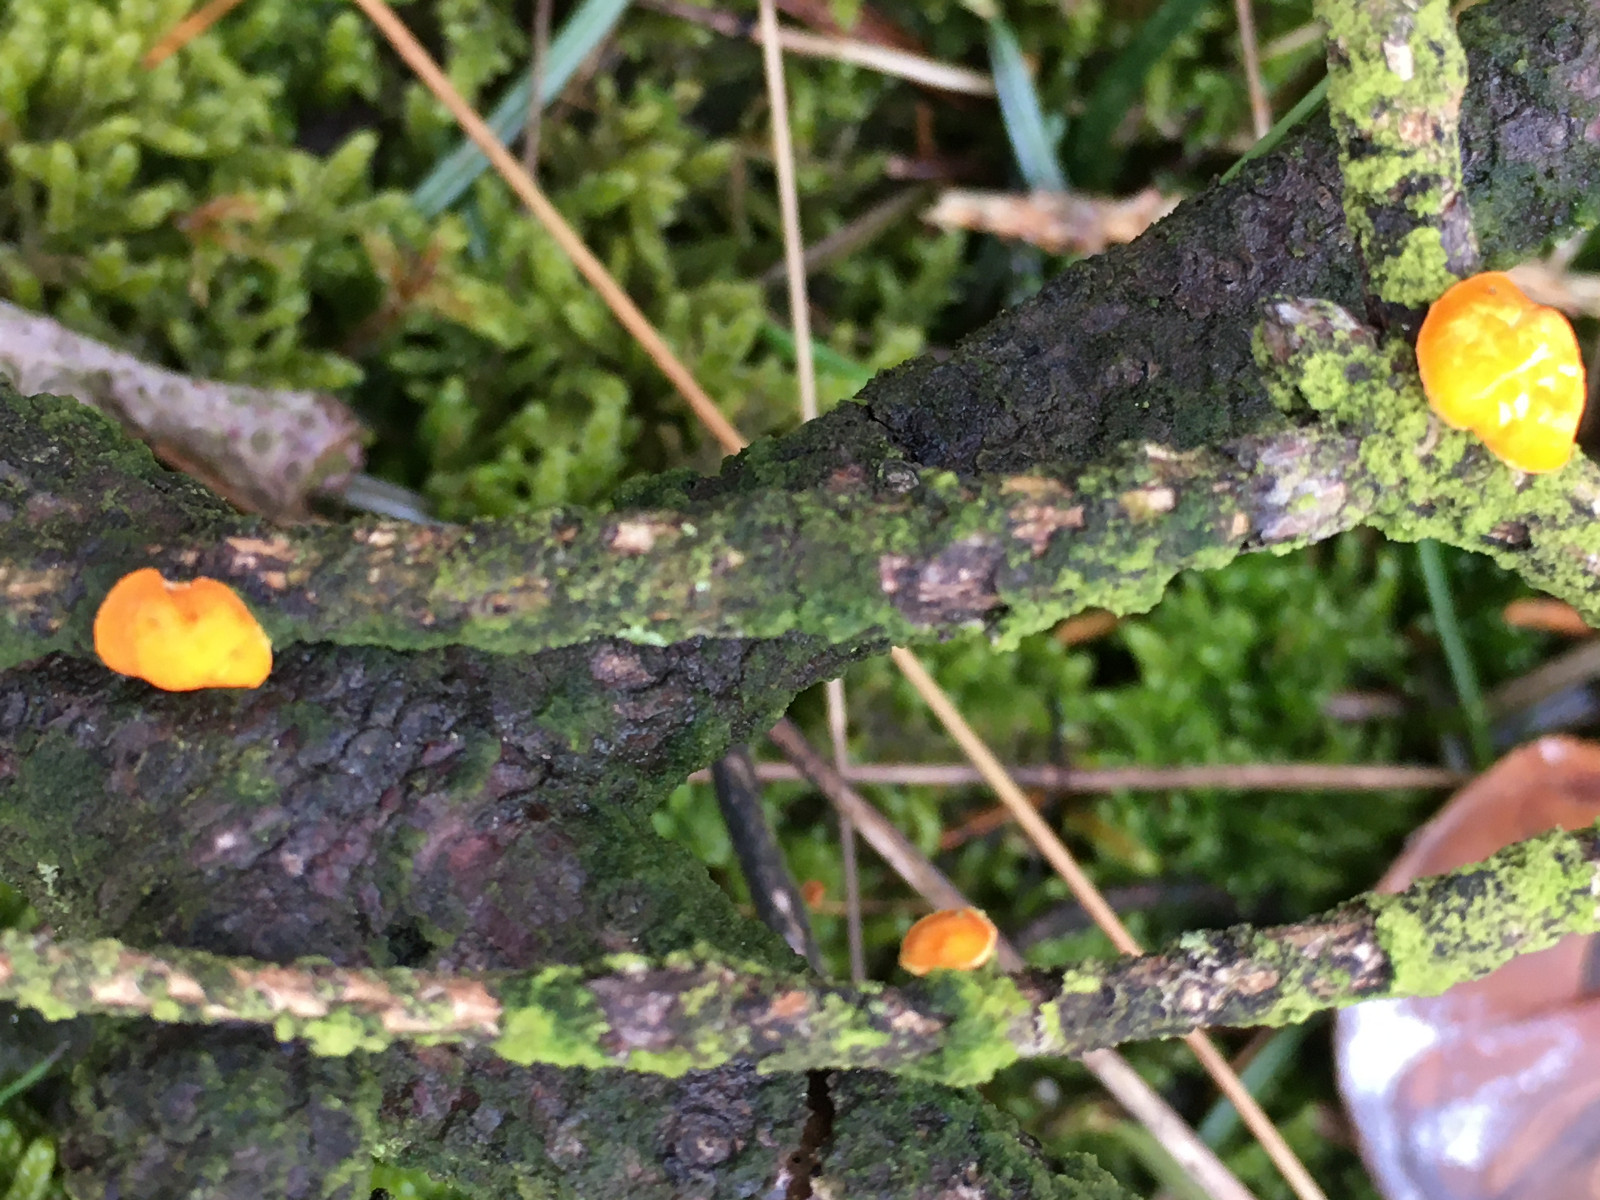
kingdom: Fungi
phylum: Ascomycota
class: Pezizomycetes
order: Pezizales
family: Sarcoscyphaceae
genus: Pithya
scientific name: Pithya vulgaris
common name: stor dukatbæger
